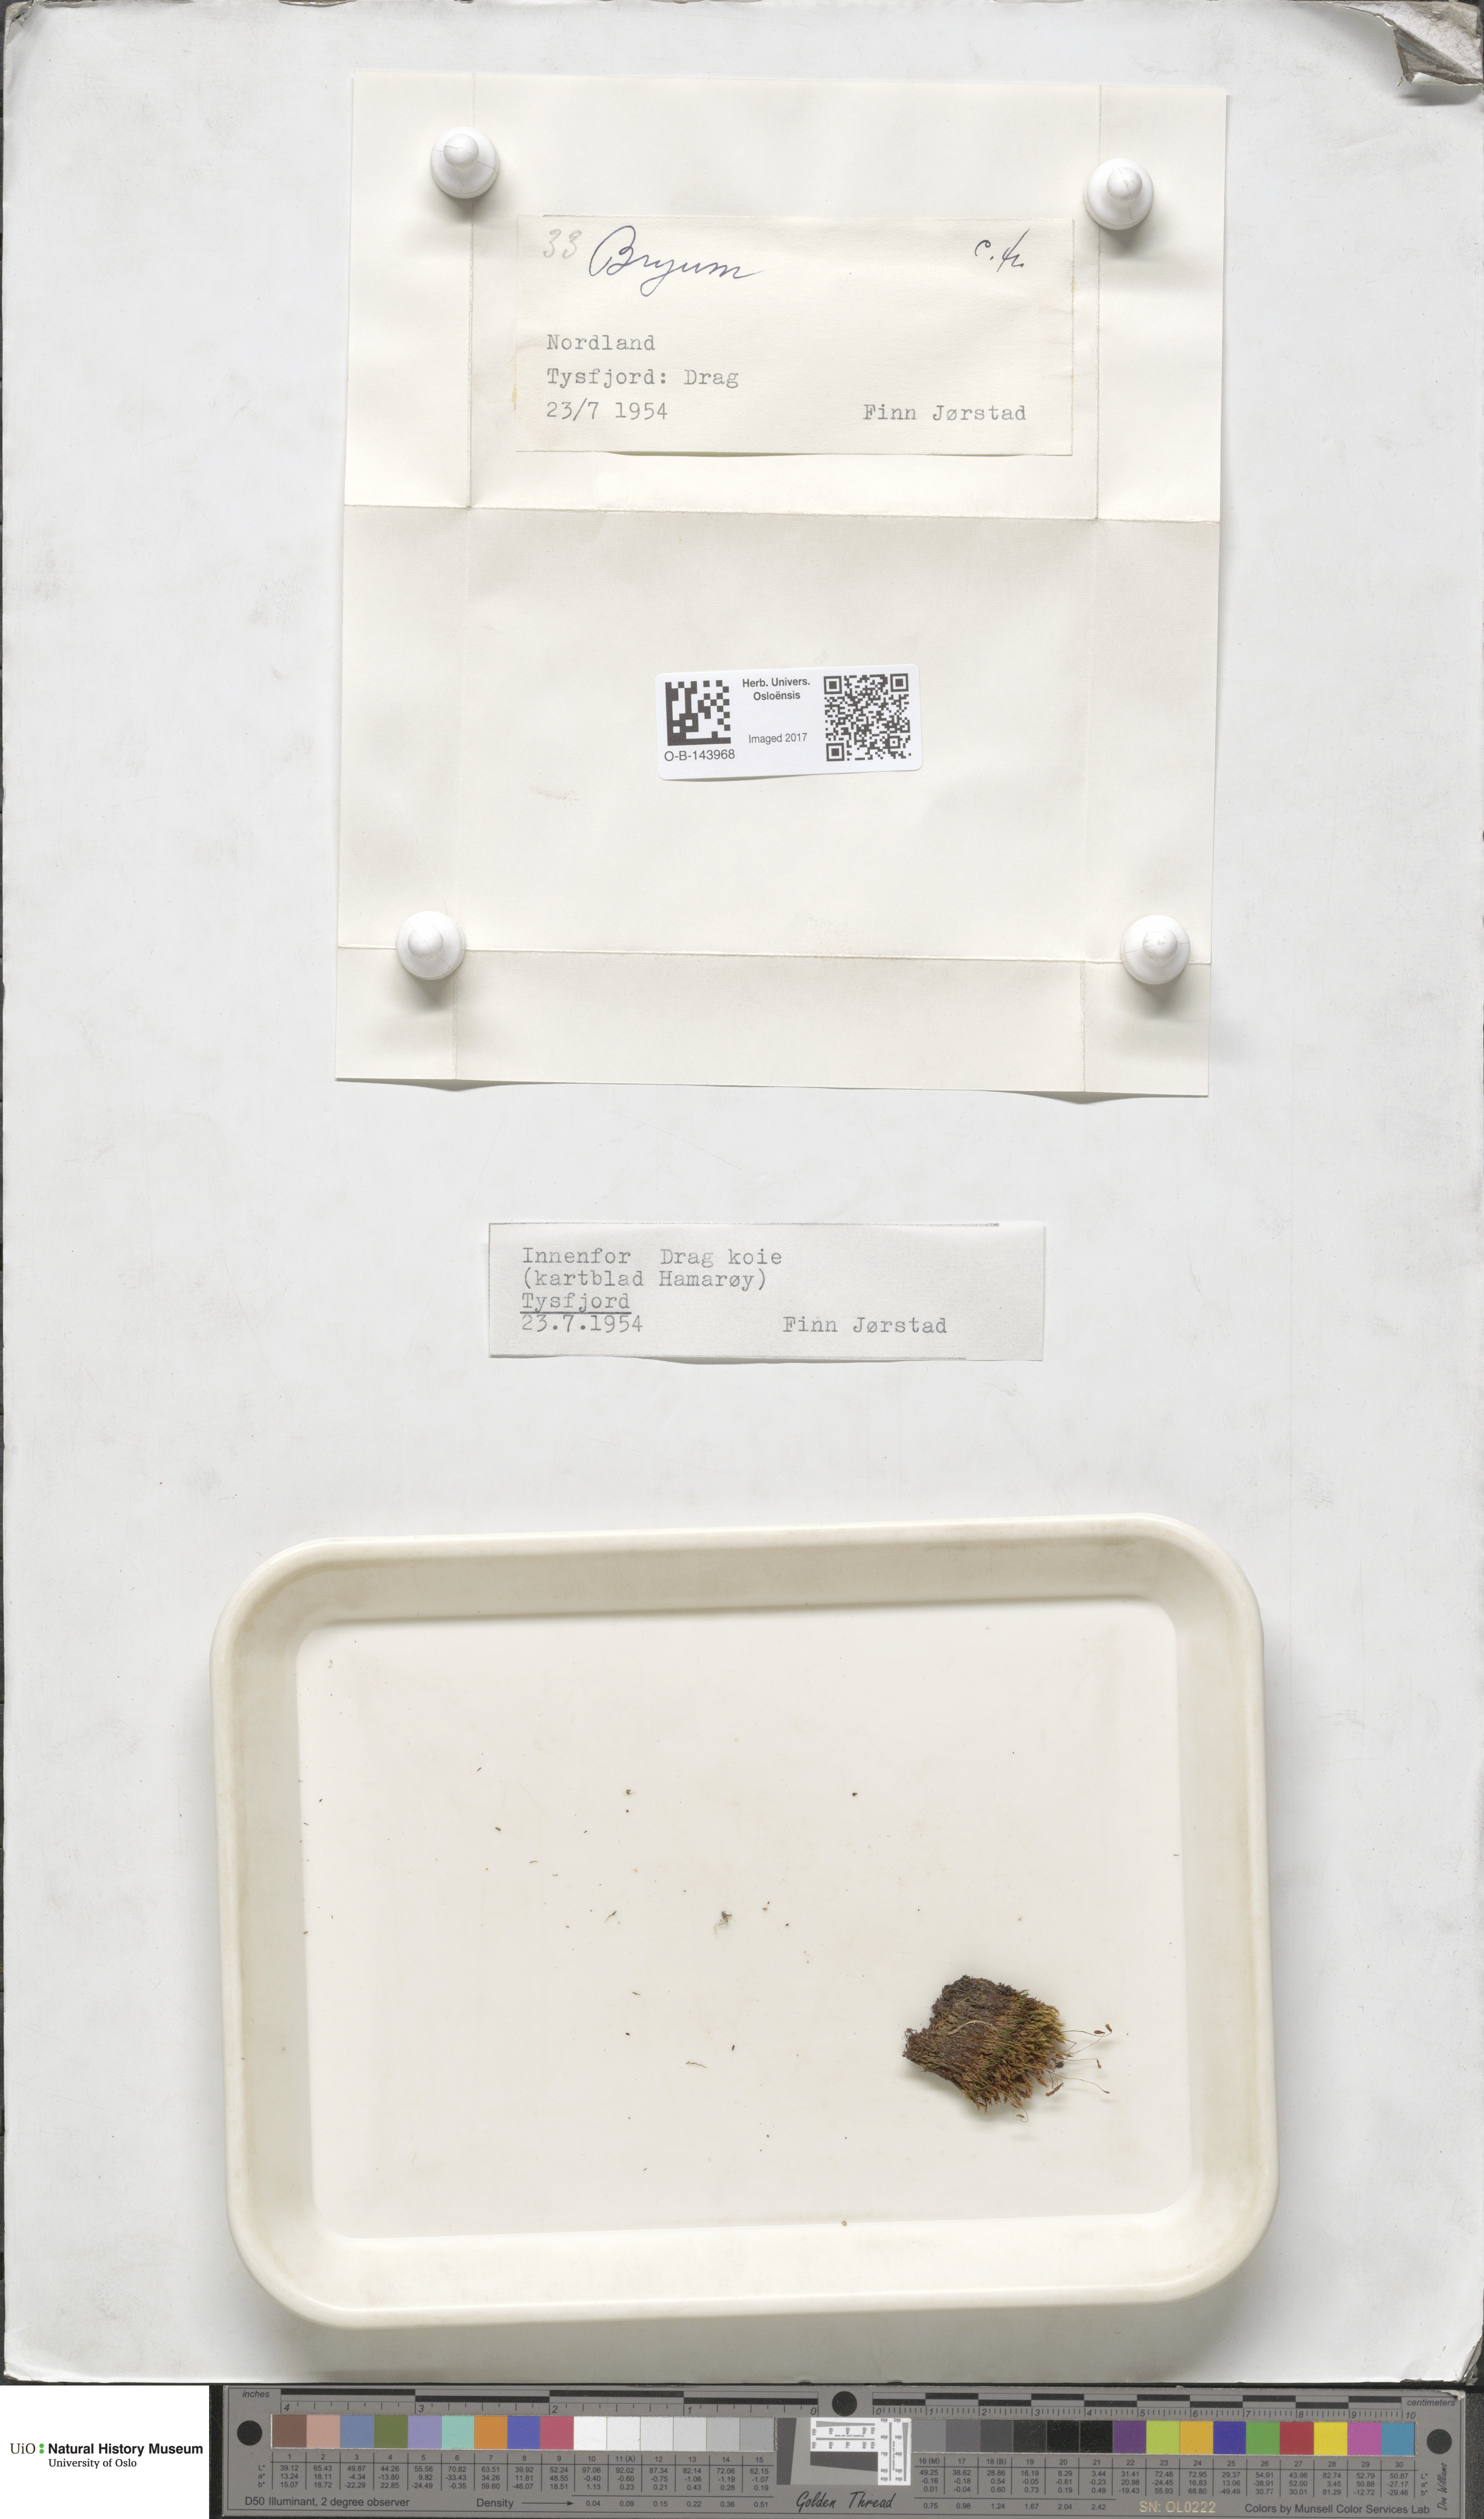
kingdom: Plantae
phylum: Bryophyta
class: Bryopsida
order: Bryales
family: Bryaceae
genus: Bryum
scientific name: Bryum
